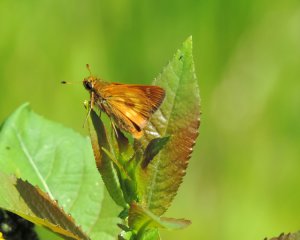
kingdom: Animalia
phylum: Arthropoda
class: Insecta
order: Lepidoptera
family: Hesperiidae
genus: Polites
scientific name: Polites
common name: Long Dash Skipper
